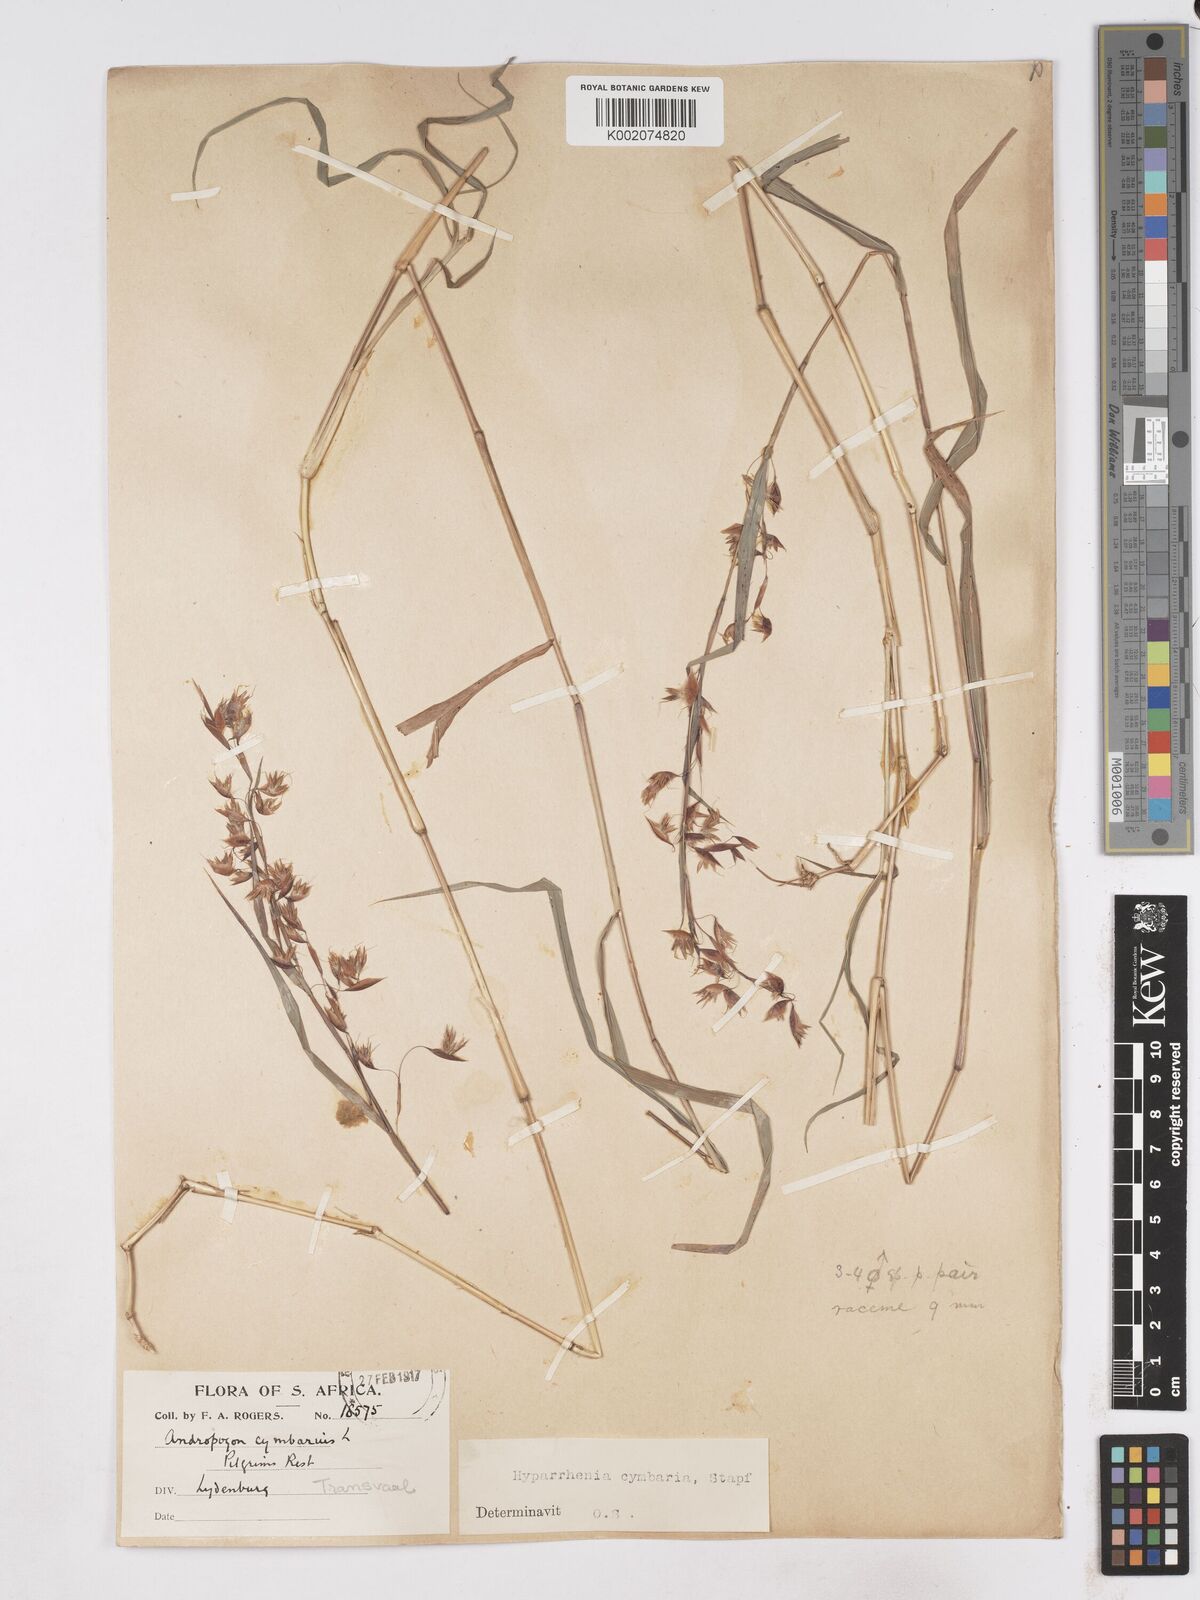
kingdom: Plantae
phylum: Tracheophyta
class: Liliopsida
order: Poales
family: Poaceae
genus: Hyparrhenia
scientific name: Hyparrhenia cymbaria
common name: Boat thatching grass
